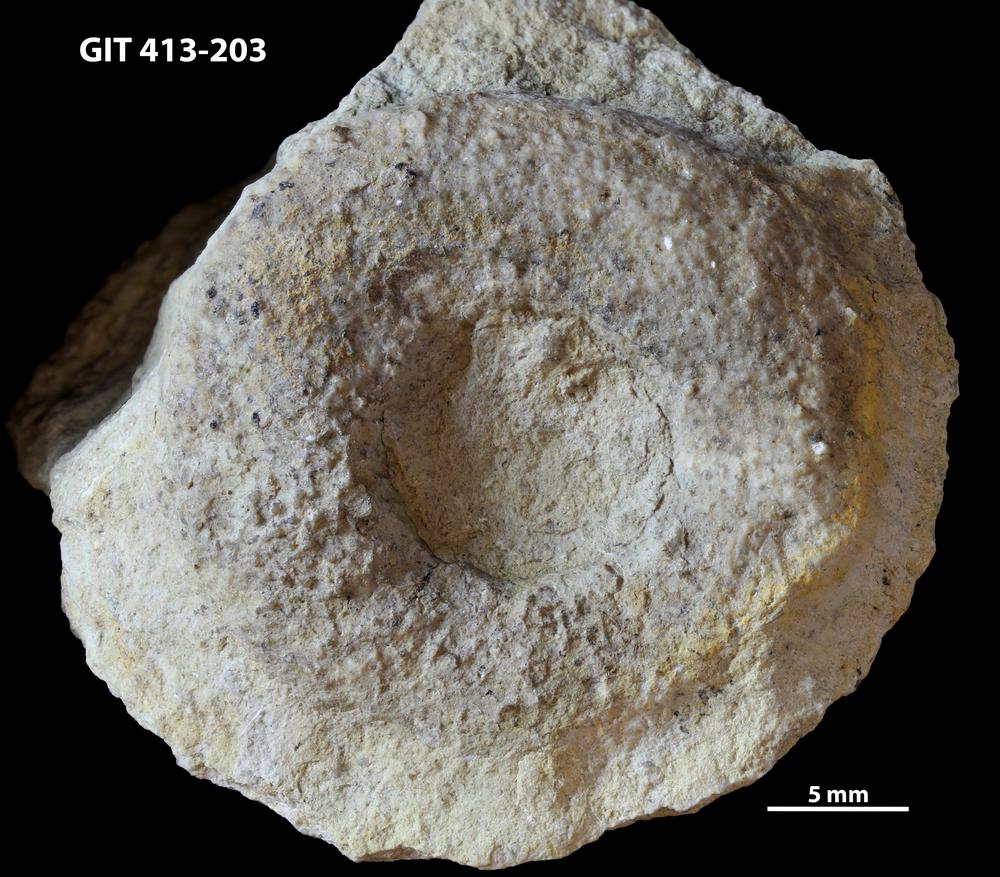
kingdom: Plantae
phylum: Chlorophyta
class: Chlorophyceae
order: Receptaculitales
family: Receptaculitaceae
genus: Receptaculites
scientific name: Receptaculites
